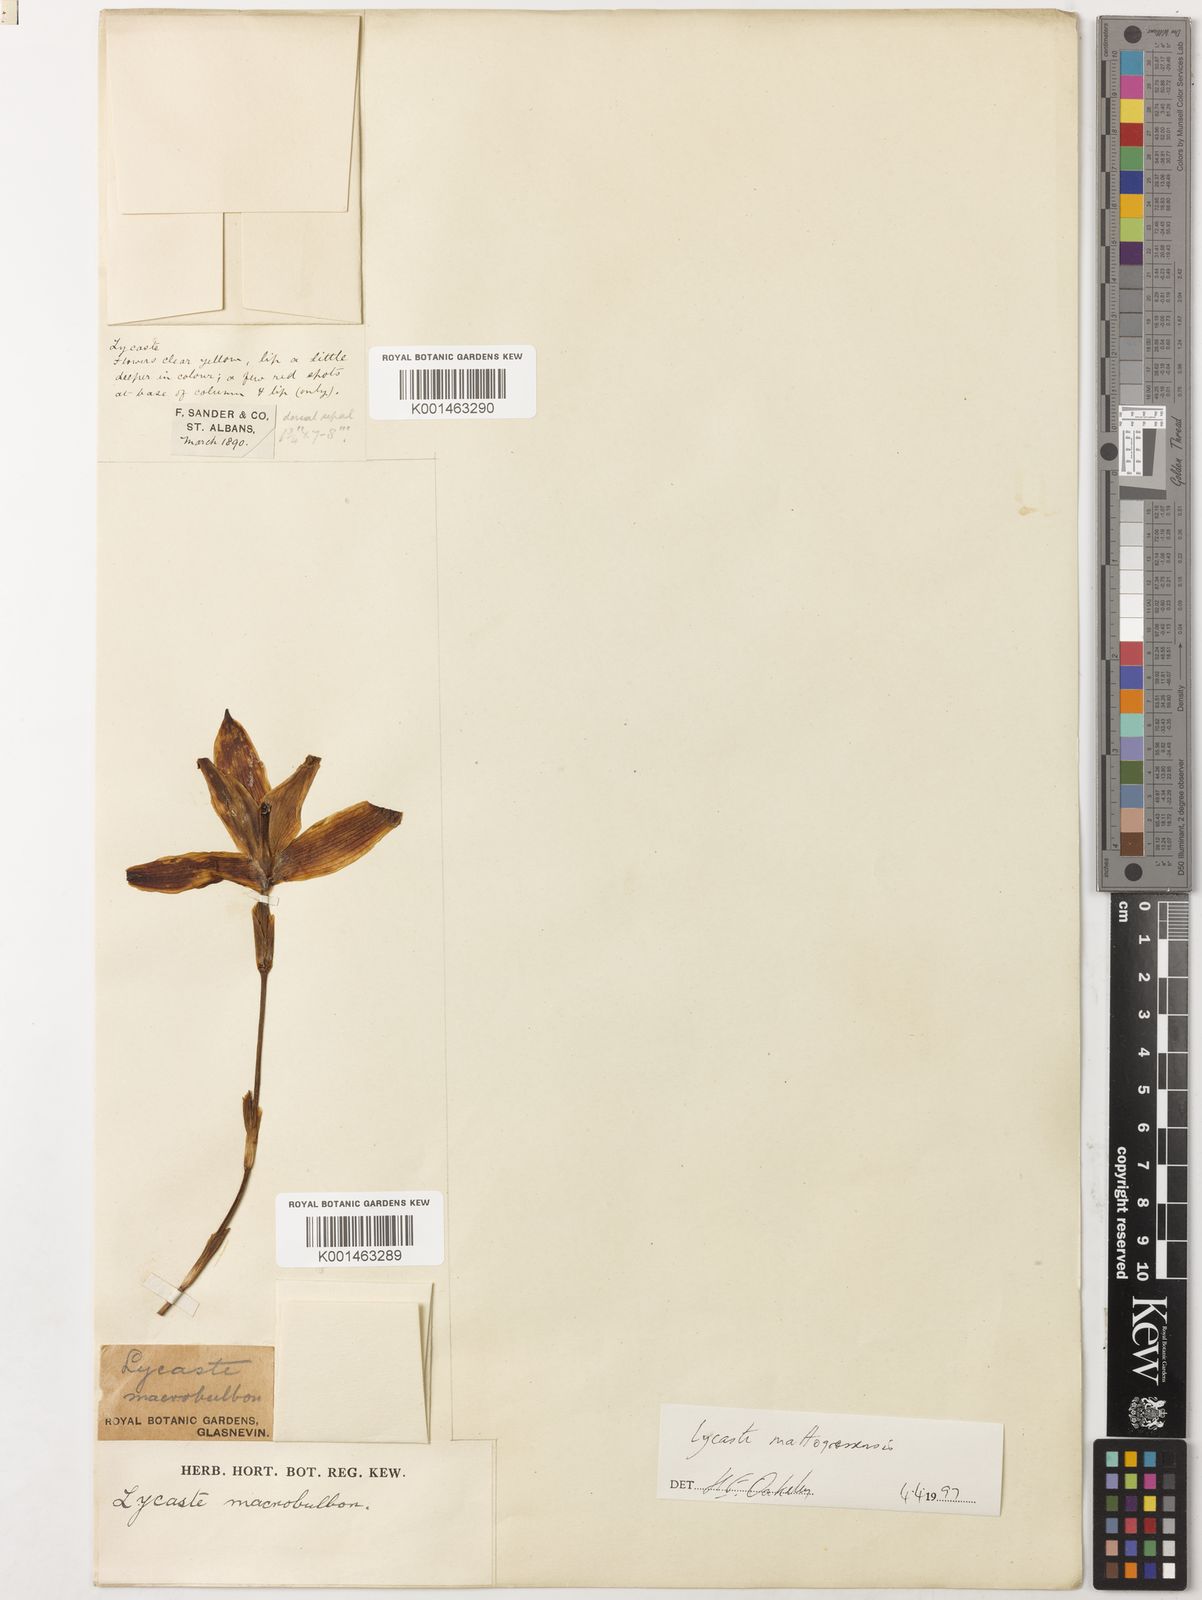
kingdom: Plantae
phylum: Tracheophyta
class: Liliopsida
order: Asparagales
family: Orchidaceae
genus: Lycaste
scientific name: Lycaste macrobulbon
